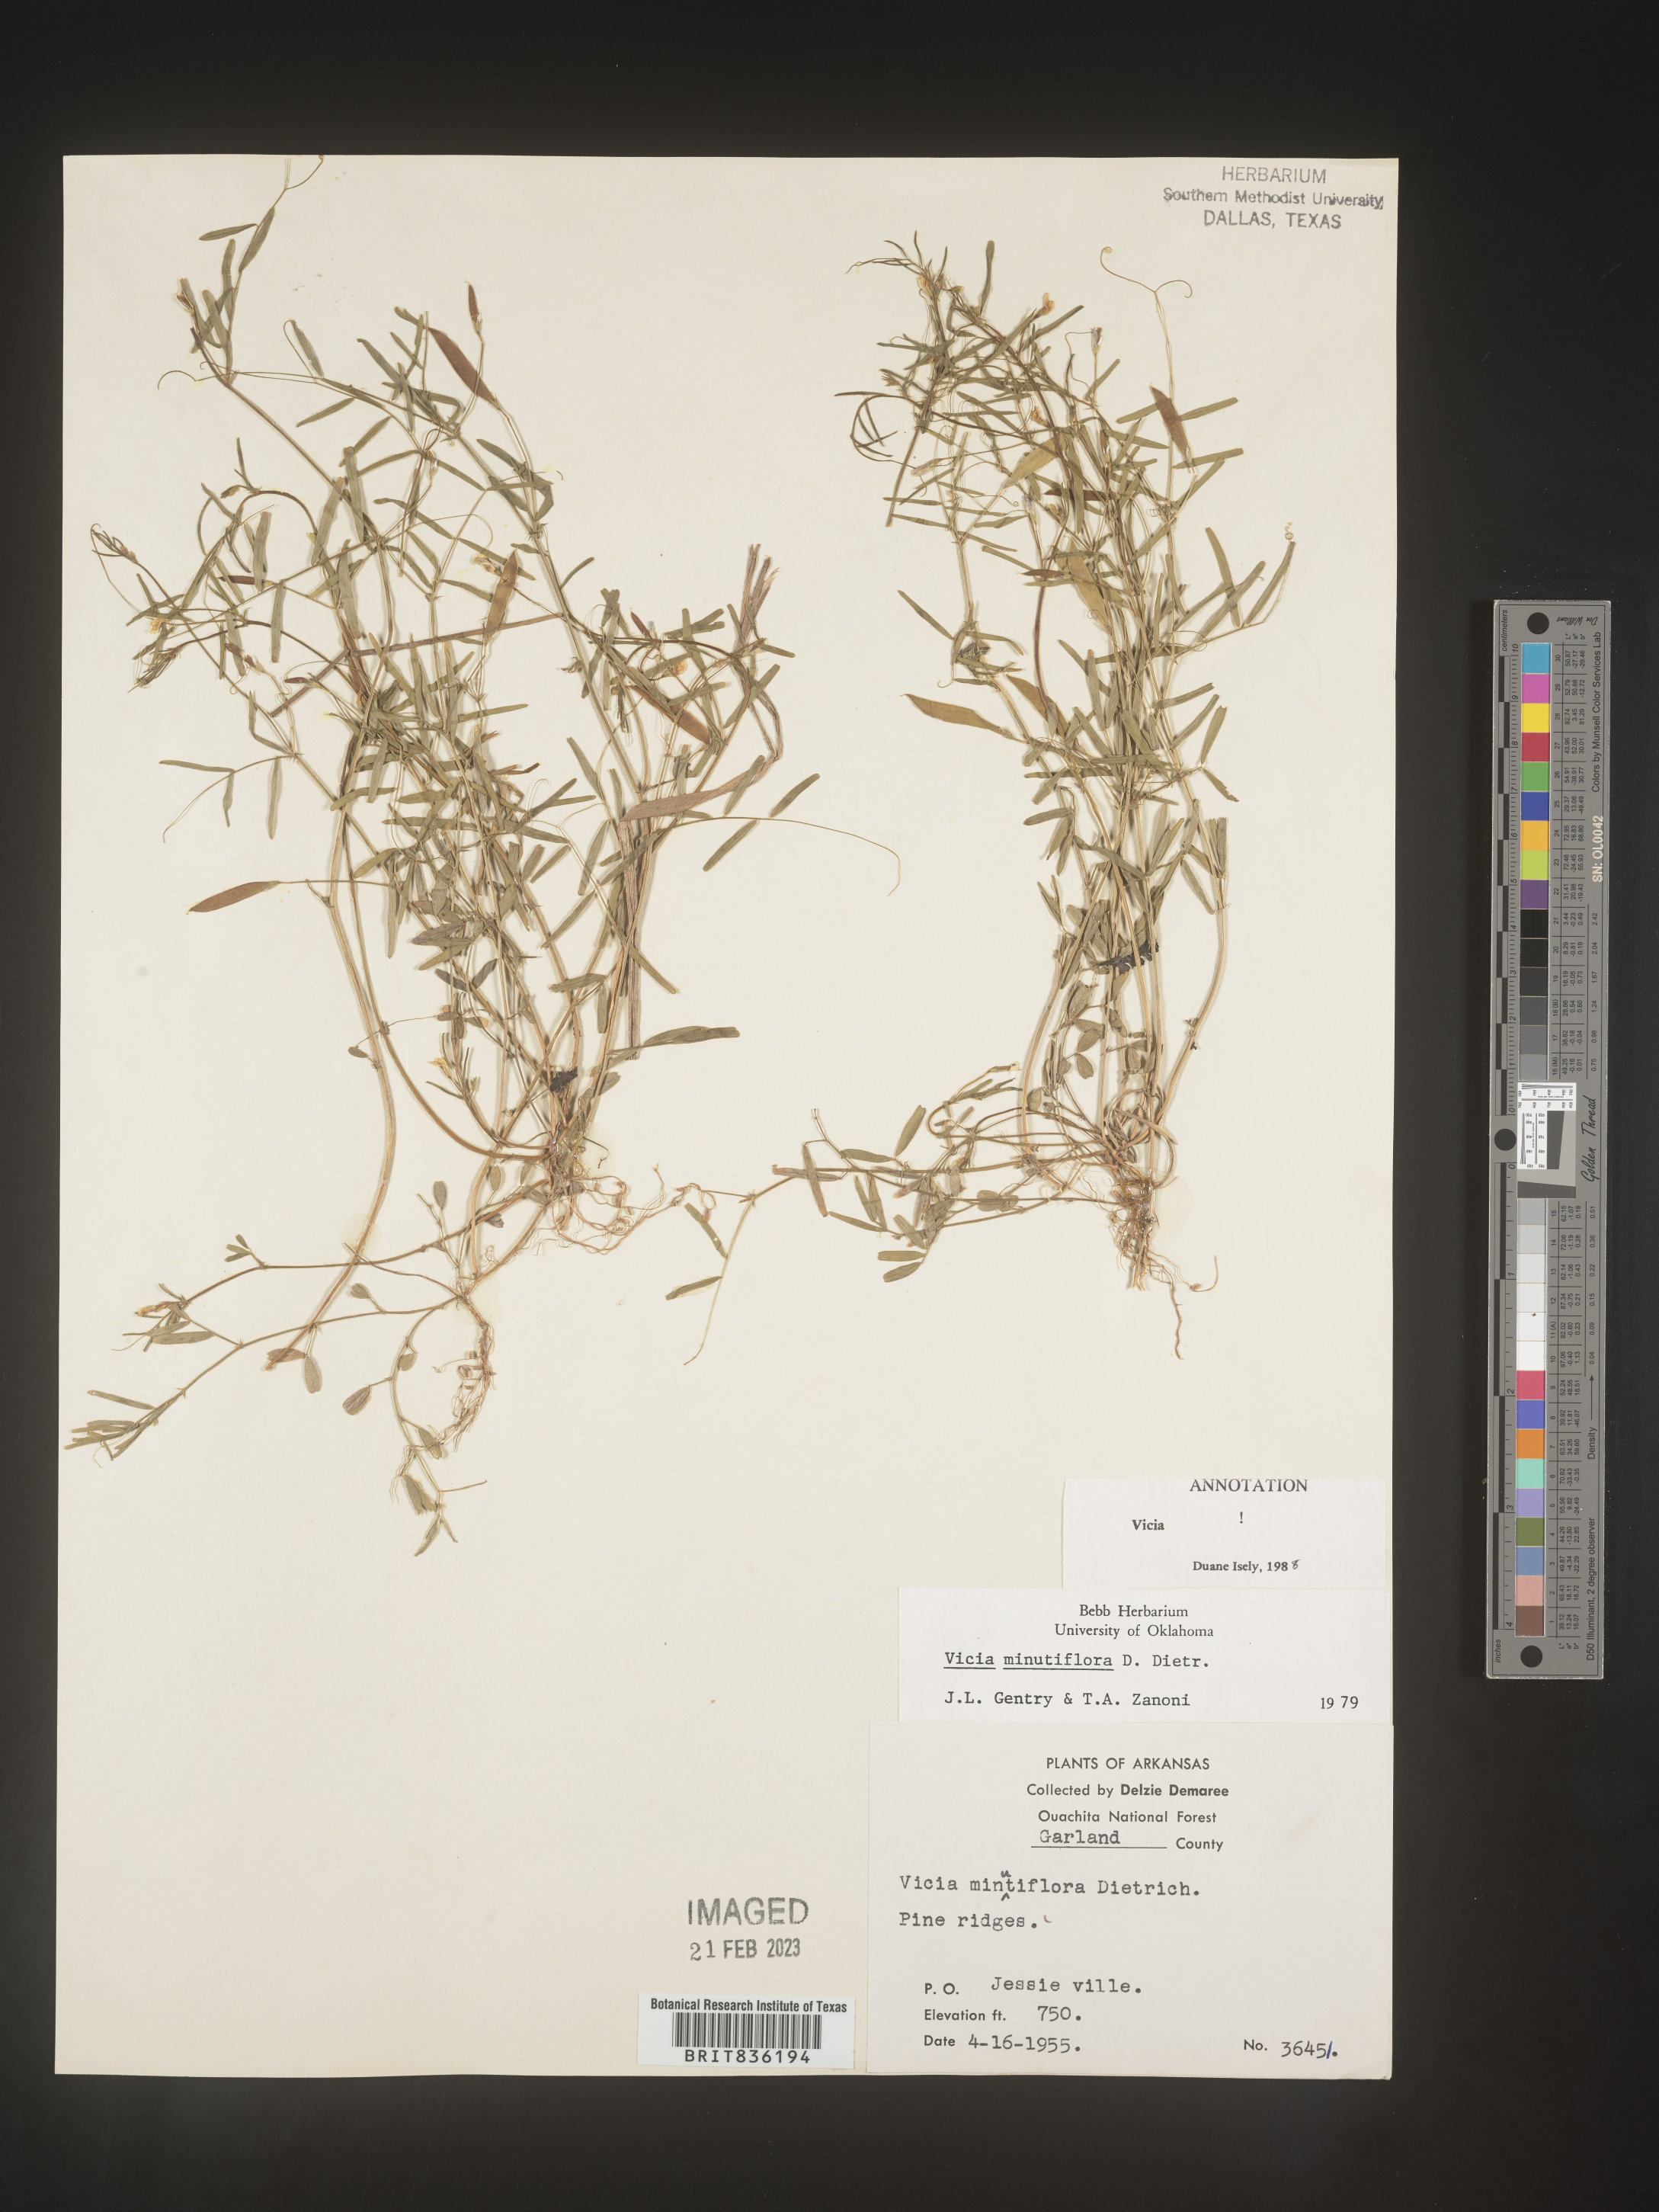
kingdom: Plantae
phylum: Tracheophyta
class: Magnoliopsida
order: Fabales
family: Fabaceae
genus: Vicia
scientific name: Vicia minutiflora
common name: Pygmy-flower vetch
